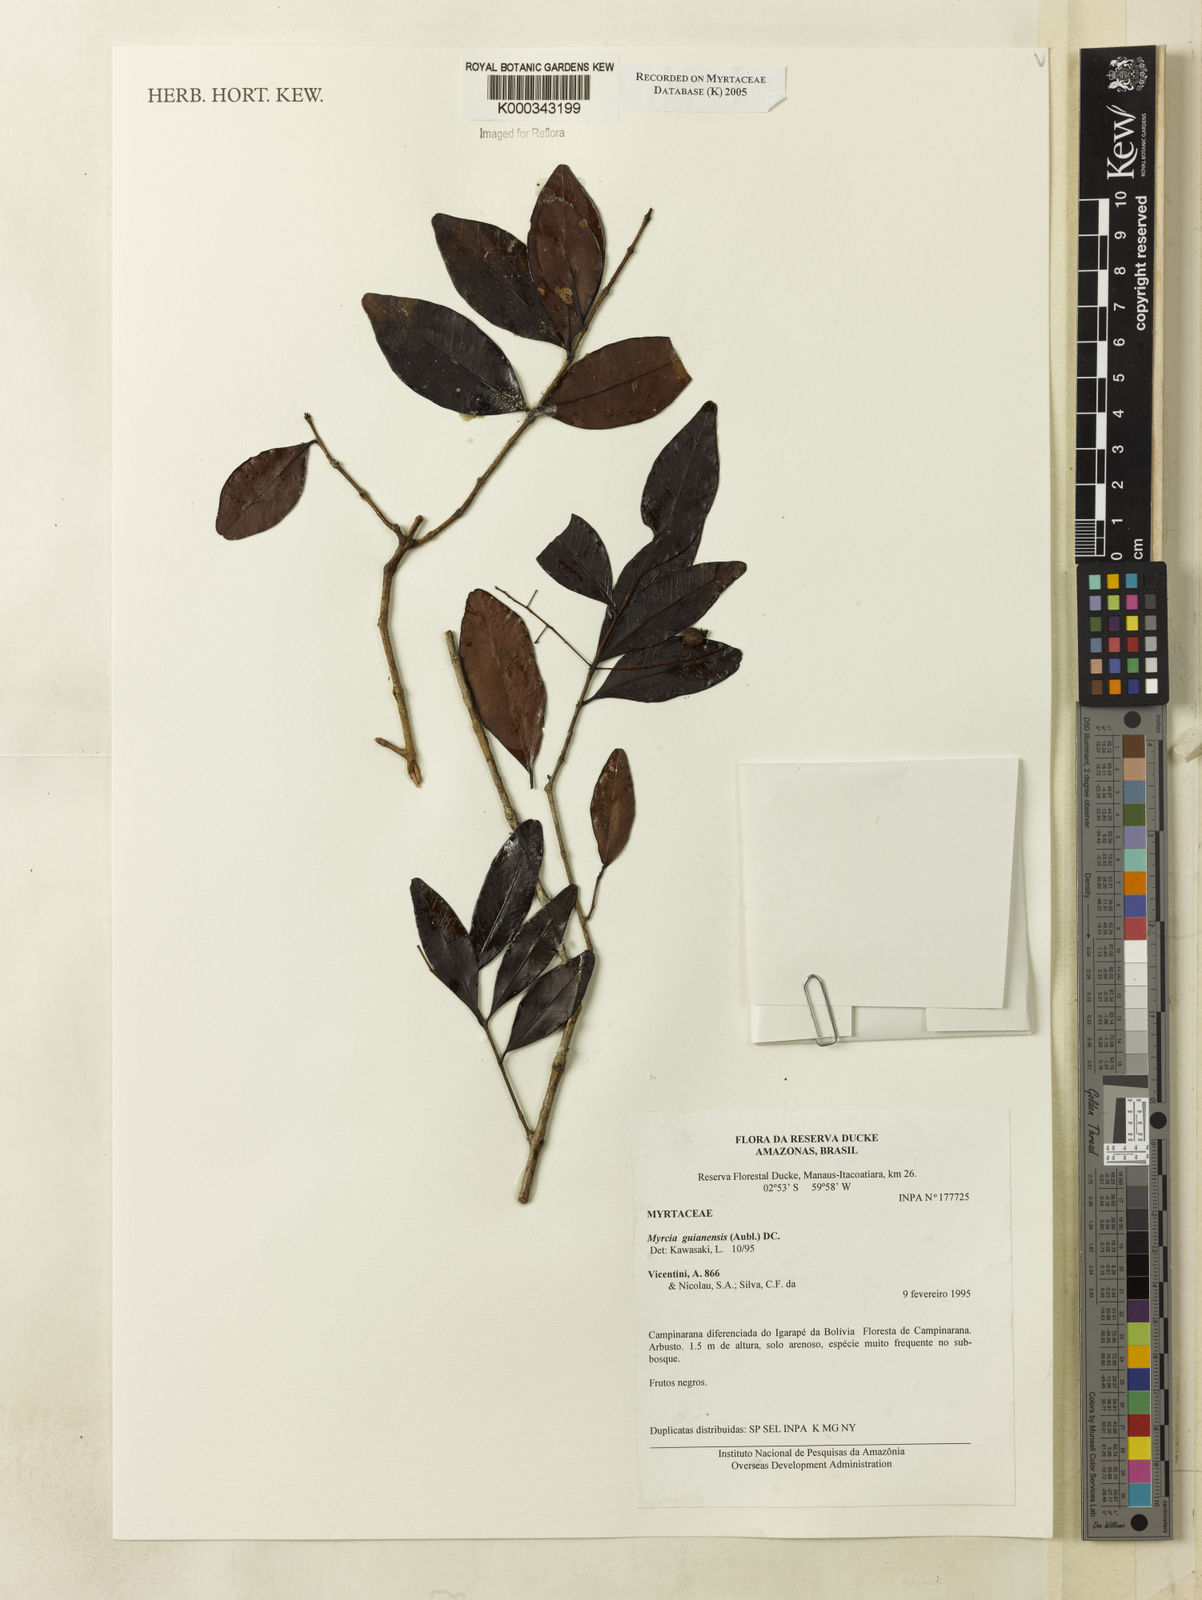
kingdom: Plantae
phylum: Tracheophyta
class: Magnoliopsida
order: Myrtales
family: Myrtaceae
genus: Myrcia
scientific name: Myrcia guianensis
